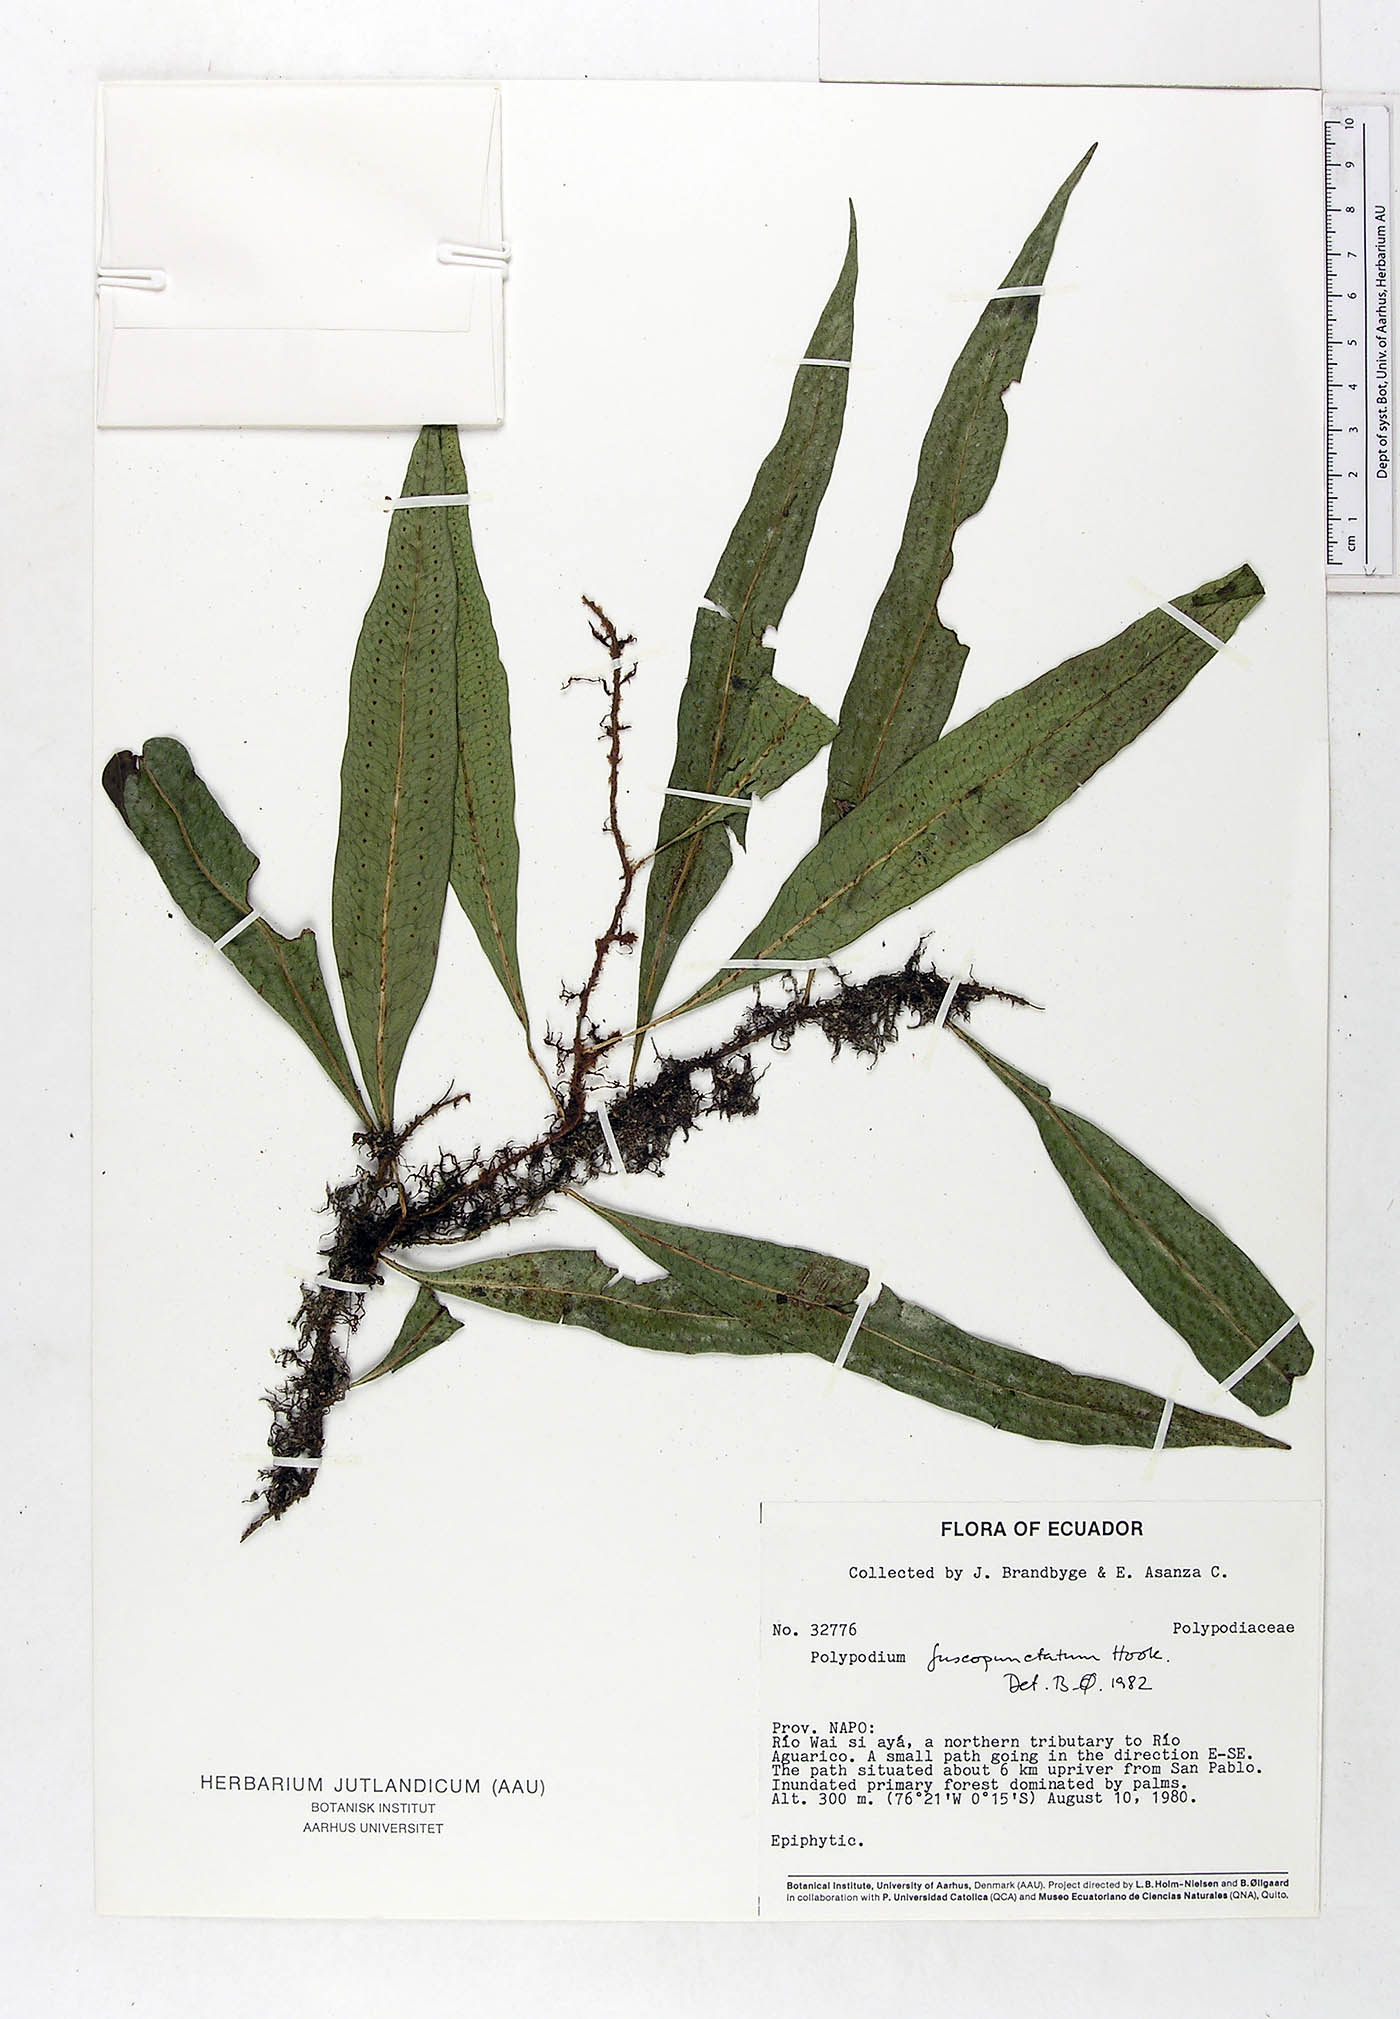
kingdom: Plantae
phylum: Tracheophyta
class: Polypodiopsida
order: Polypodiales
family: Polypodiaceae
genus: Microgramma
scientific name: Microgramma dictyophylla
